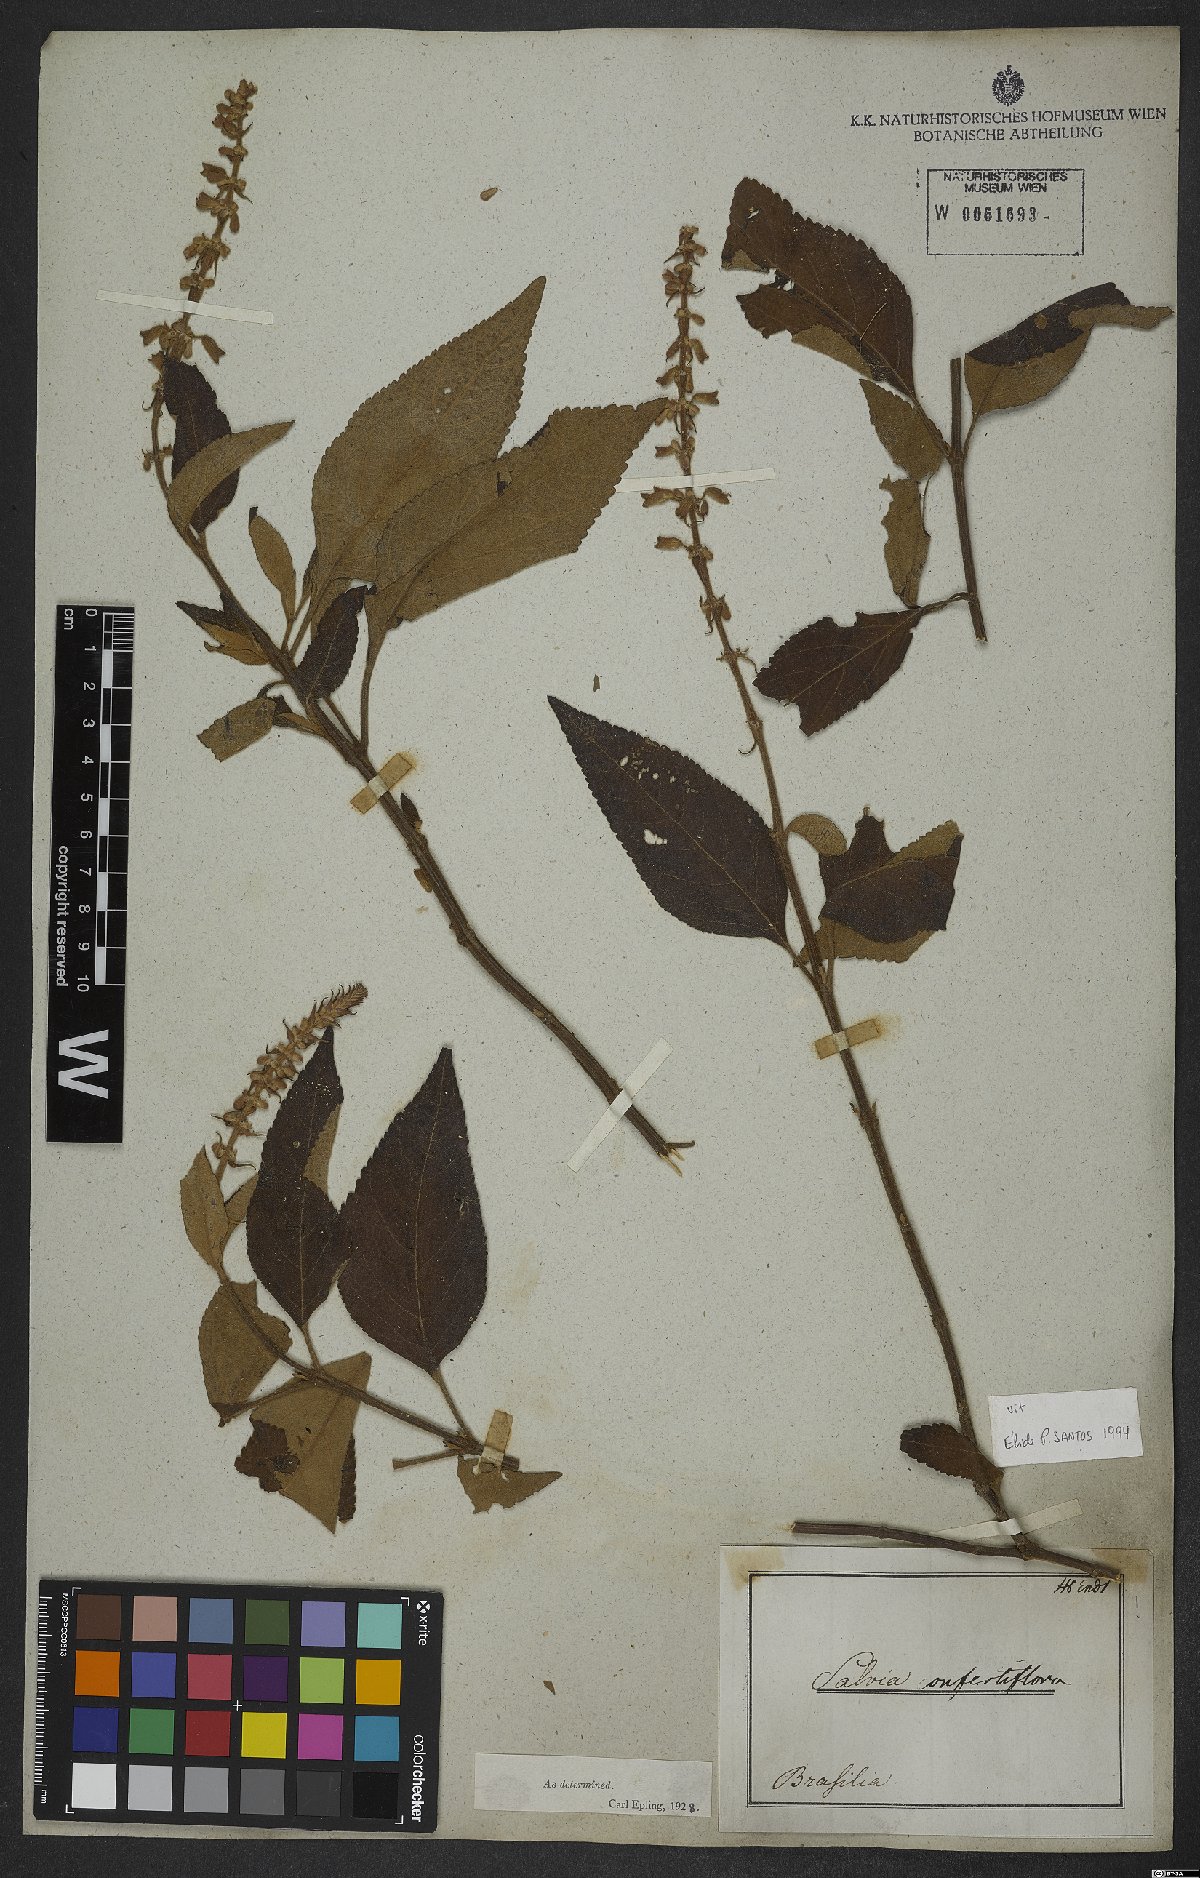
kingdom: Plantae
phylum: Tracheophyta
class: Magnoliopsida
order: Lamiales
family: Lamiaceae
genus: Salvia
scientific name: Salvia confertiflora
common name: Sabra-spike sage
